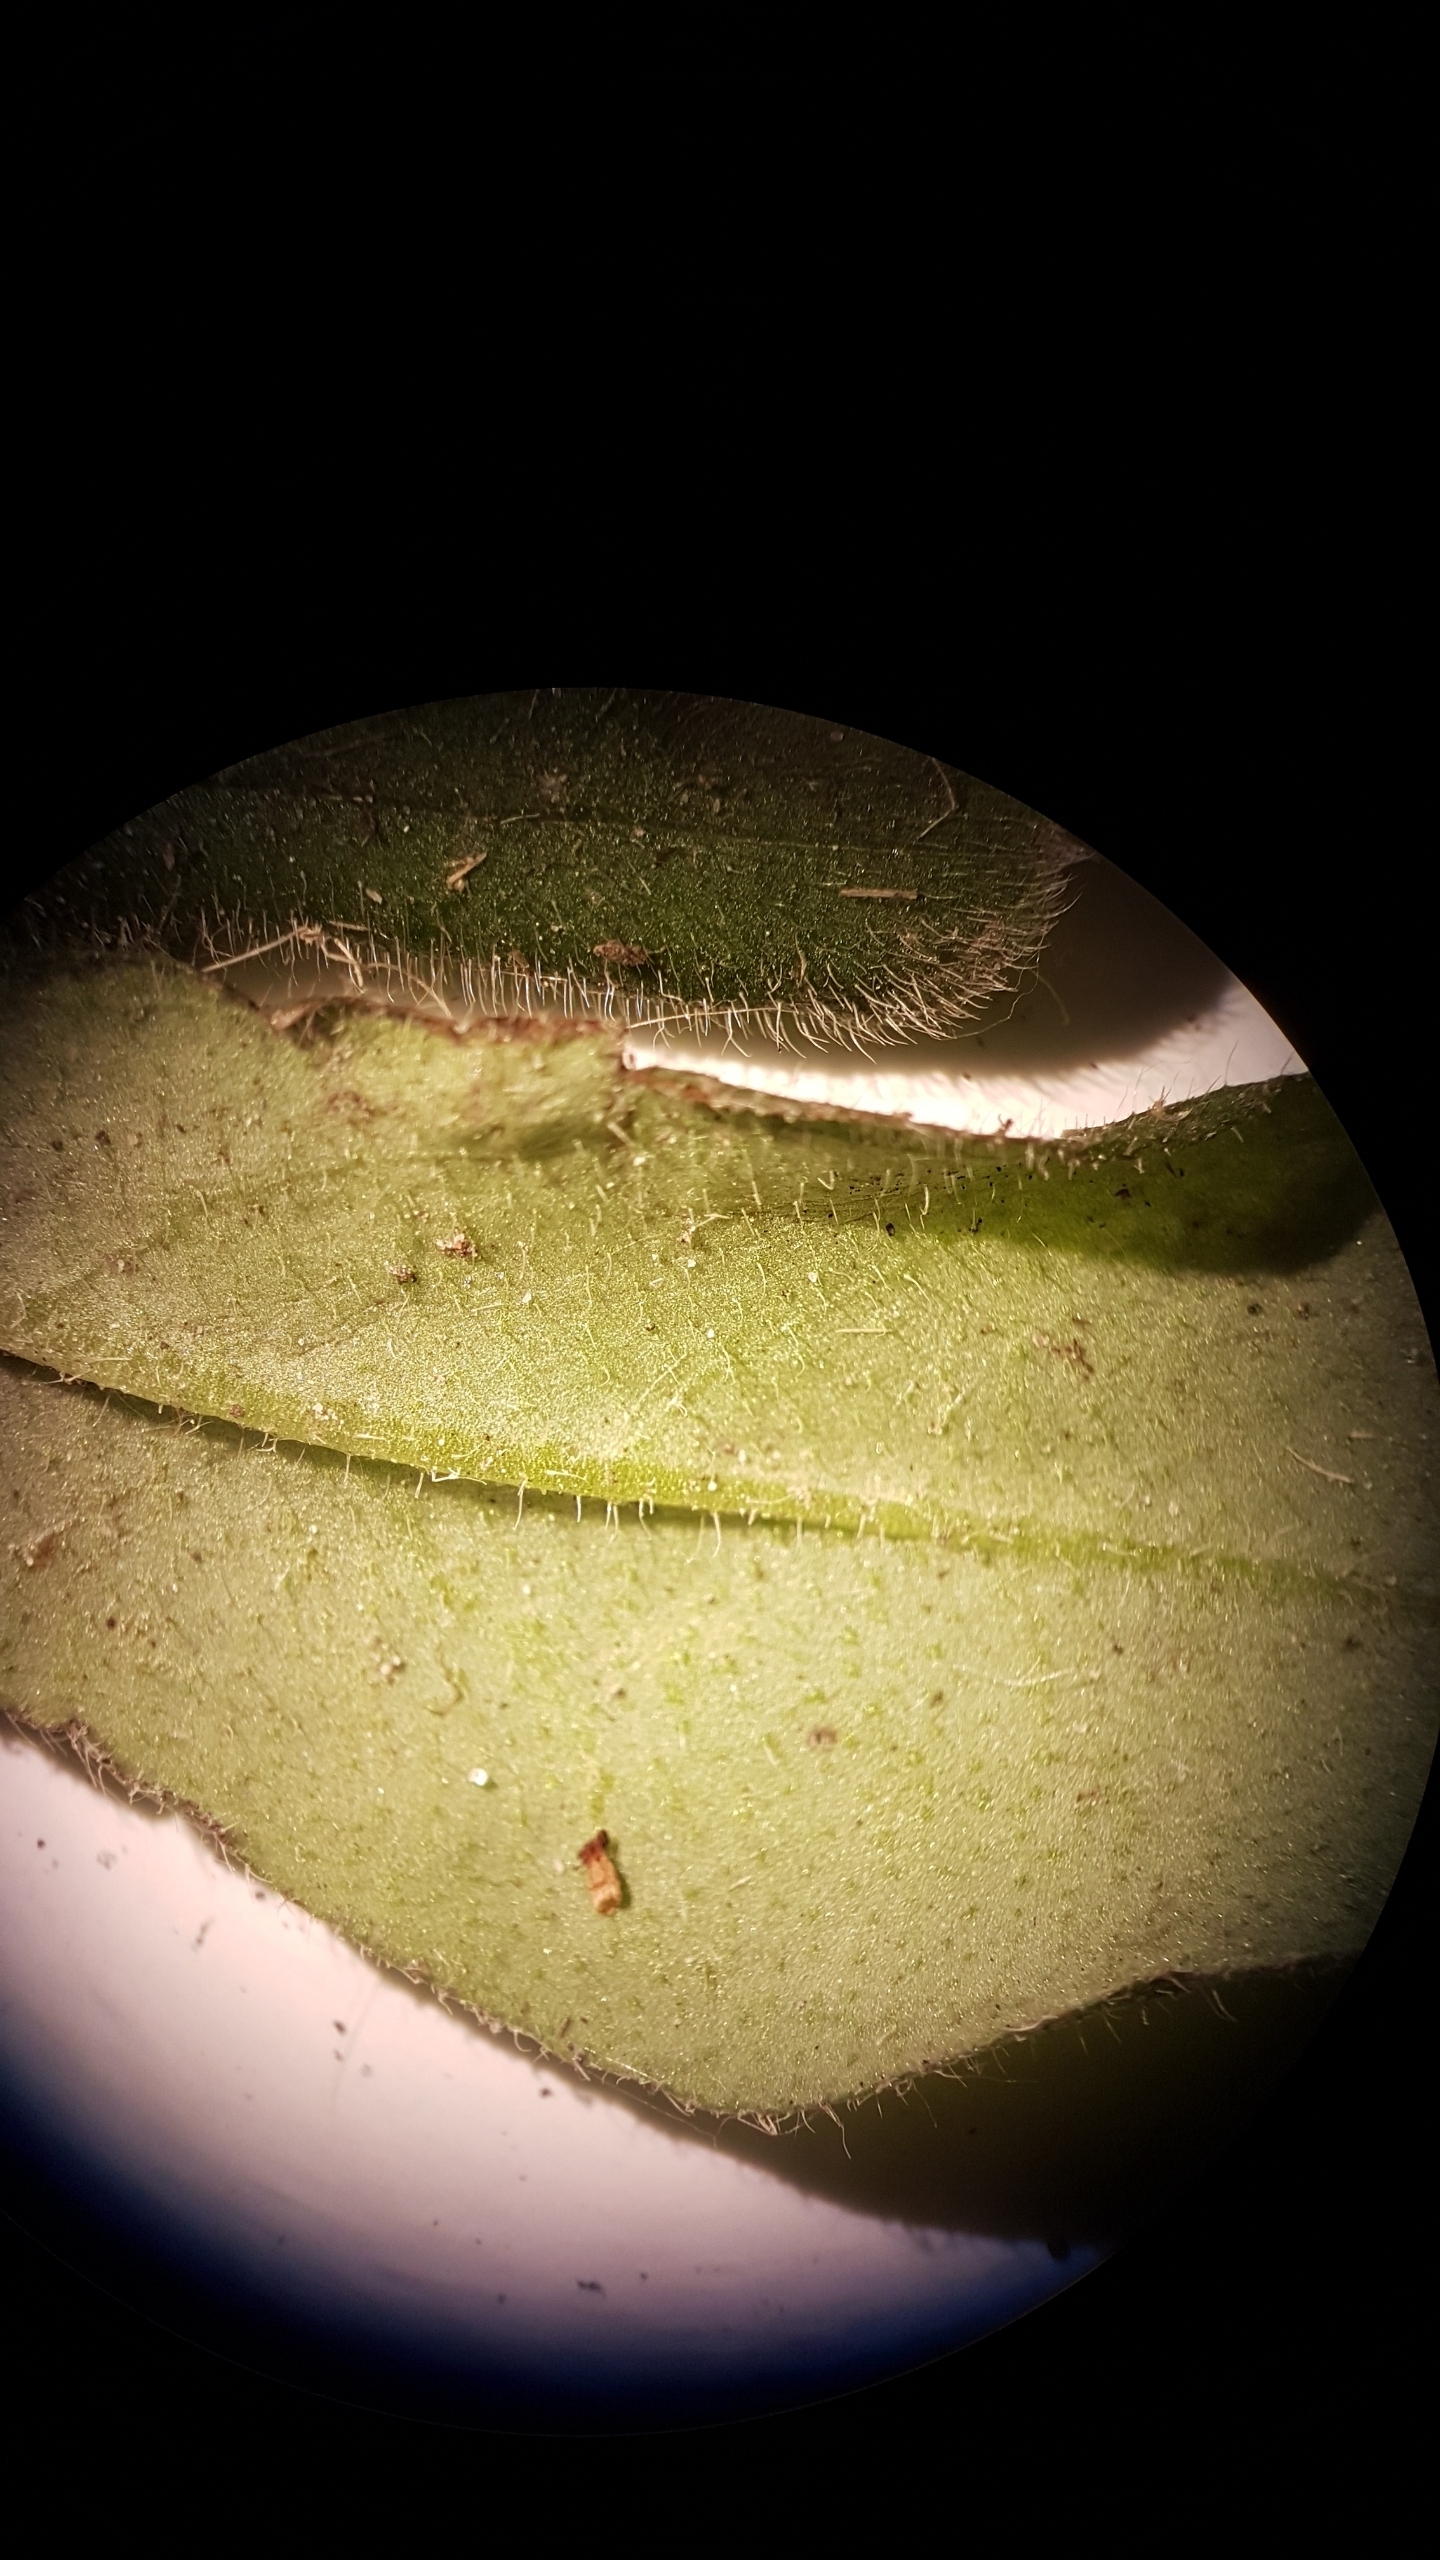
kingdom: Plantae
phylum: Tracheophyta
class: Magnoliopsida
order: Boraginales
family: Boraginaceae
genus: Myosotis
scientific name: Myosotis arvensis
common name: Mark-forglemmigej
